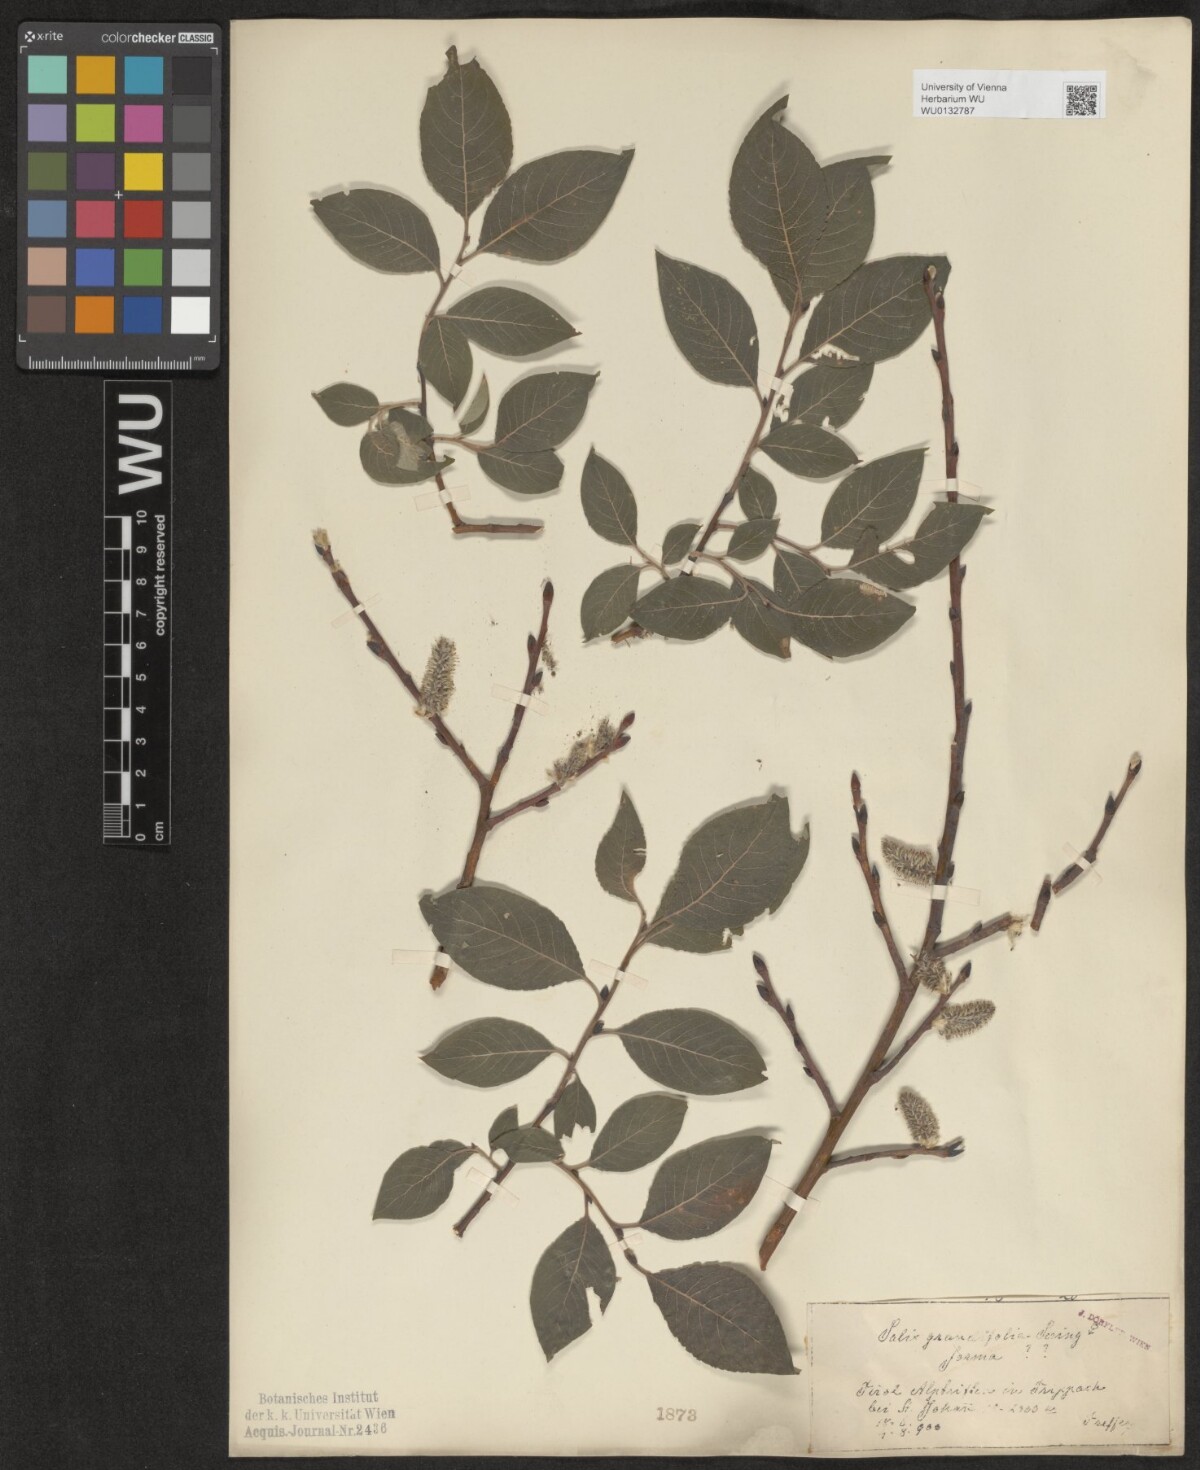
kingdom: Plantae
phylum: Tracheophyta
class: Magnoliopsida
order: Malpighiales
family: Salicaceae
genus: Salix
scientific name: Salix appendiculata
